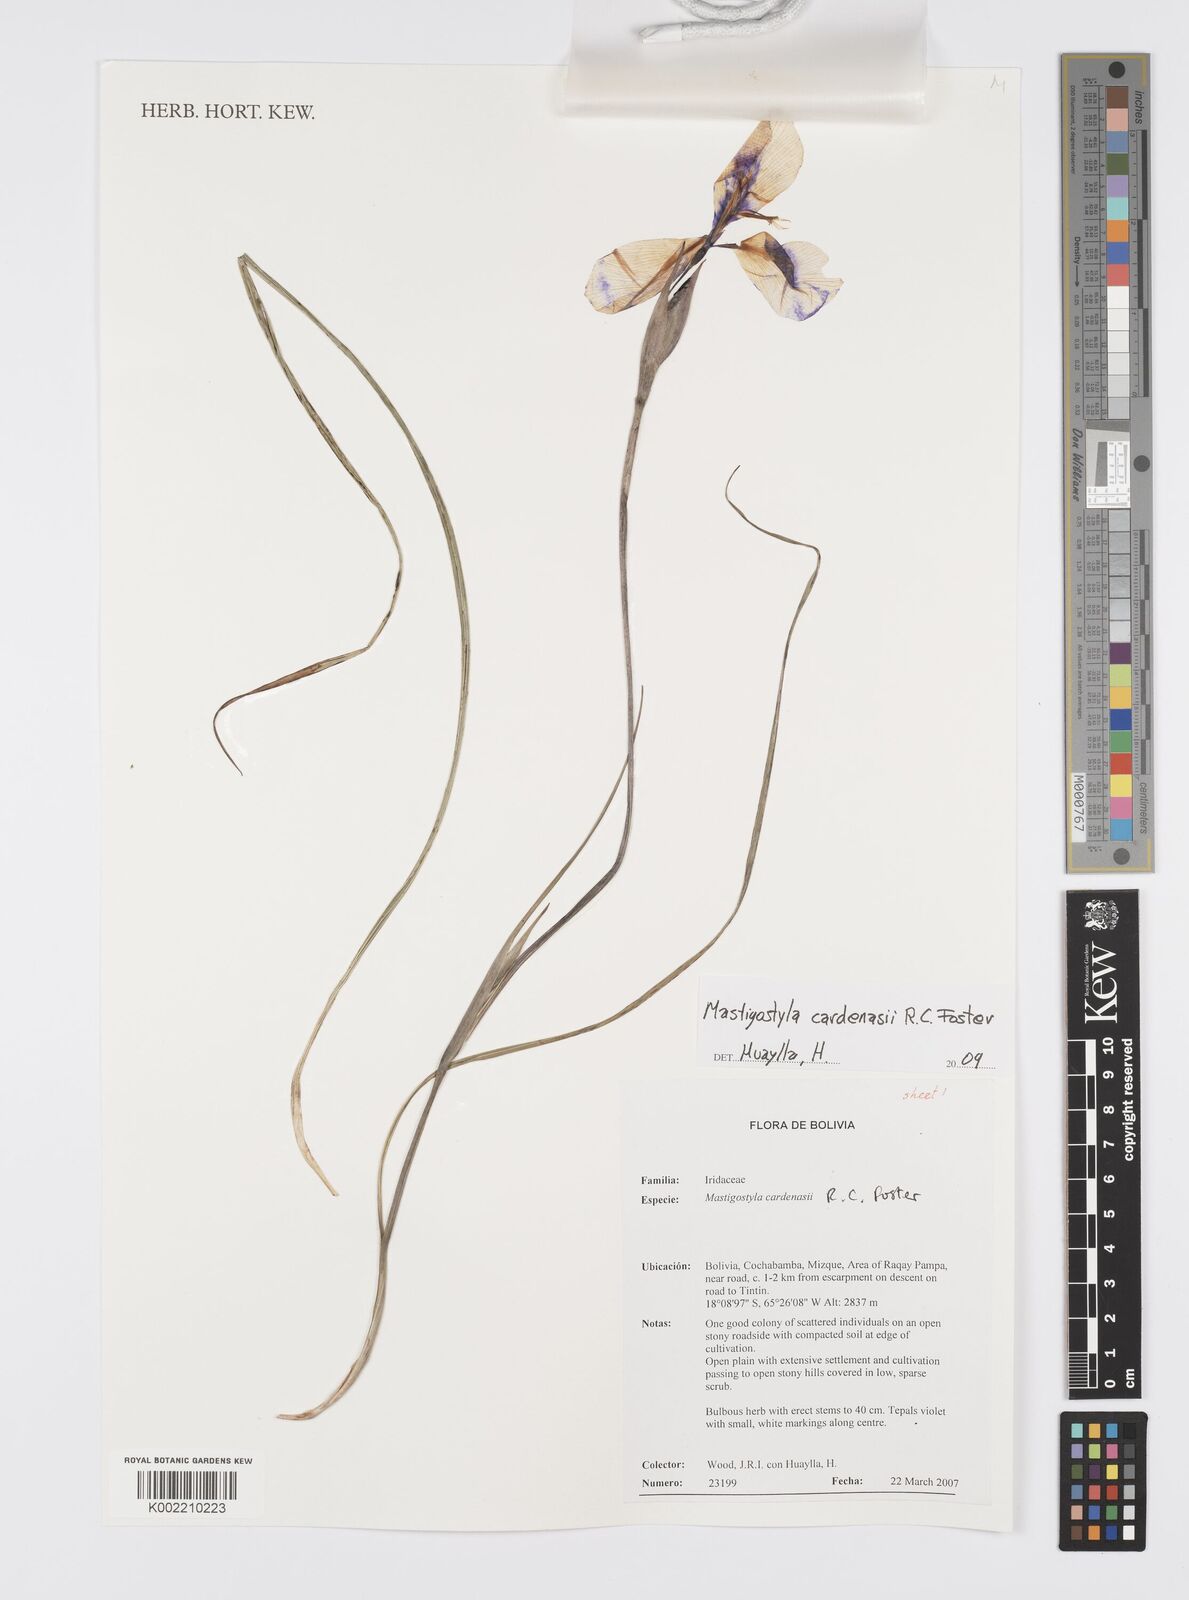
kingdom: Plantae
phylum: Tracheophyta
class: Liliopsida
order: Asparagales
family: Iridaceae
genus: Mastigostyla
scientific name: Mastigostyla cardenasii
